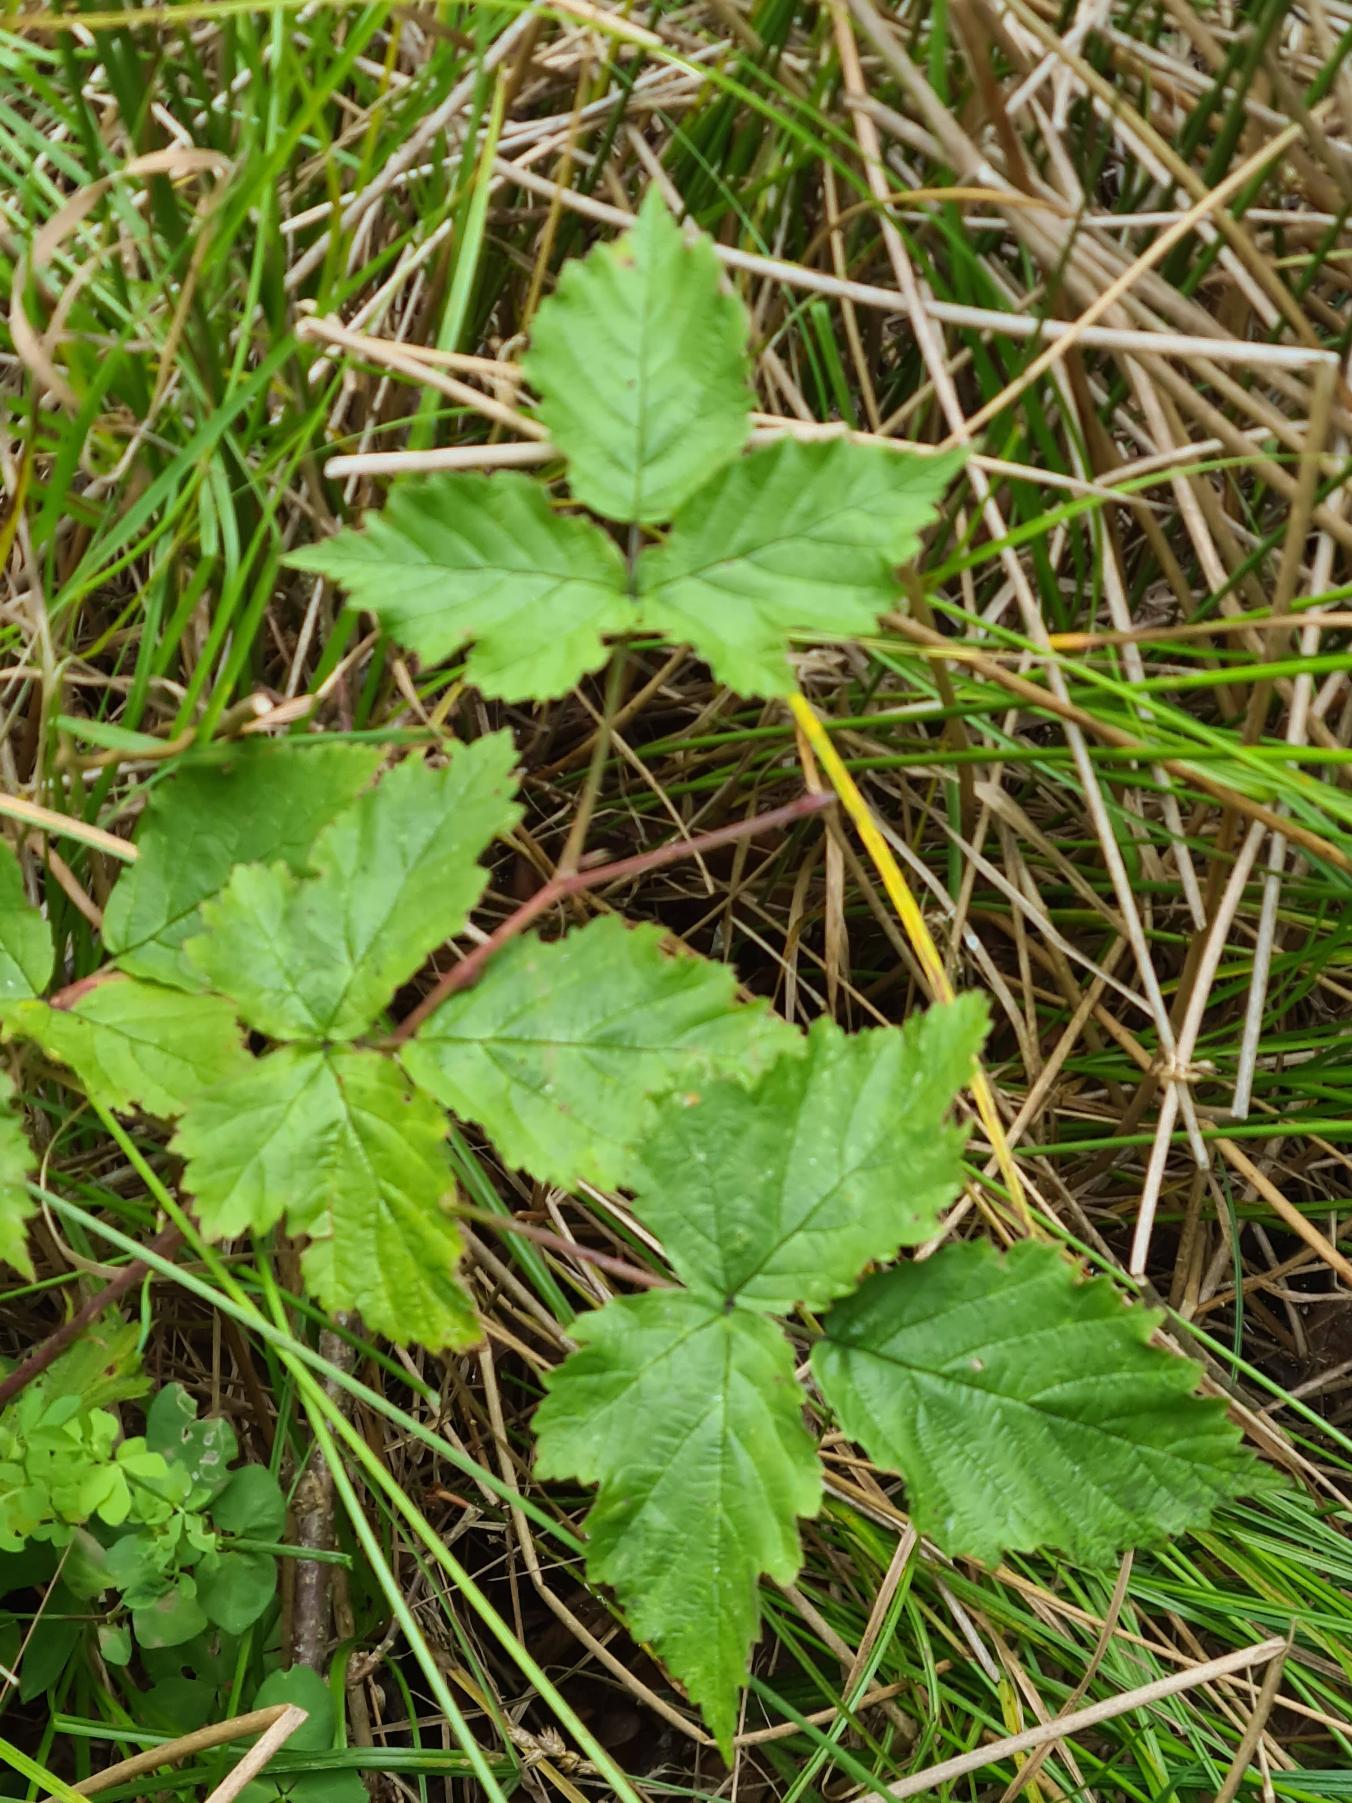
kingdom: Plantae
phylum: Tracheophyta
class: Magnoliopsida
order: Rosales
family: Rosaceae
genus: Rubus
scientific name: Rubus caesius
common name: Korbær
